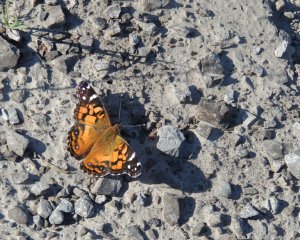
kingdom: Animalia
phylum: Arthropoda
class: Insecta
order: Lepidoptera
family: Nymphalidae
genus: Vanessa
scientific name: Vanessa virginiensis
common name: American Lady
